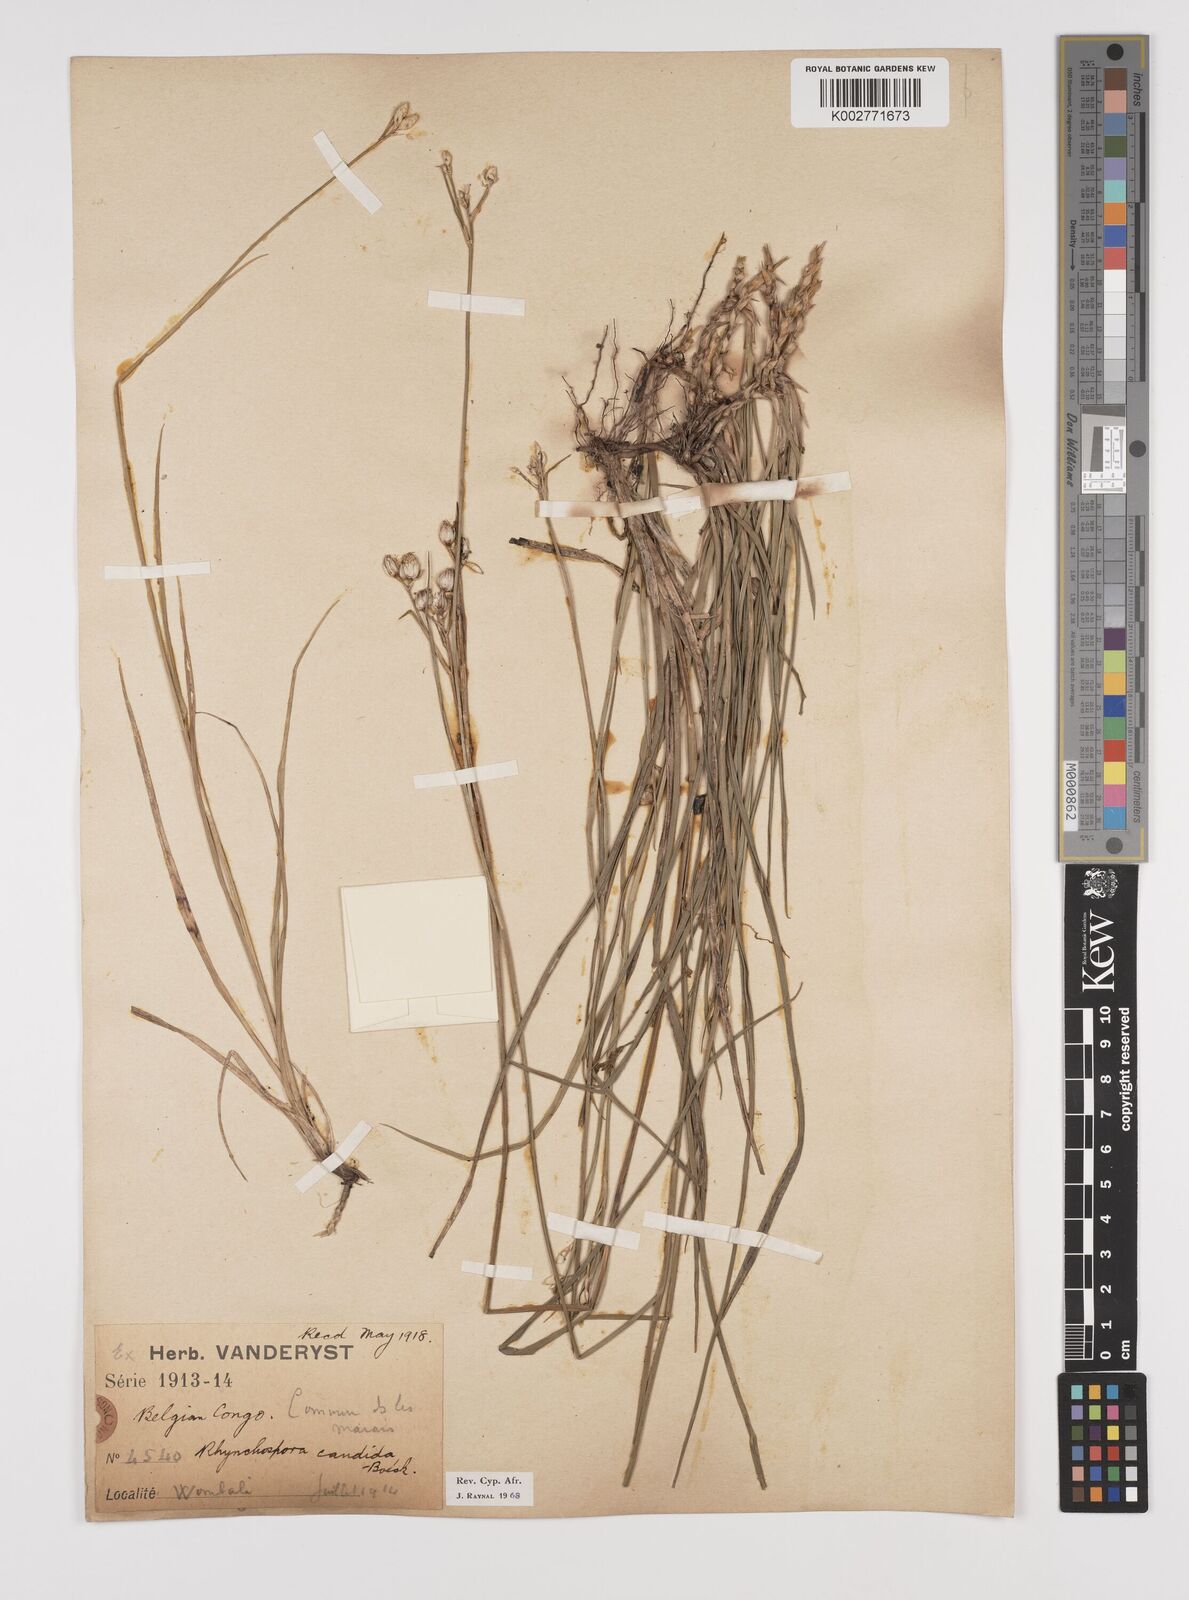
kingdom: Plantae
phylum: Tracheophyta
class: Liliopsida
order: Poales
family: Cyperaceae
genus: Rhynchospora
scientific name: Rhynchospora candida
